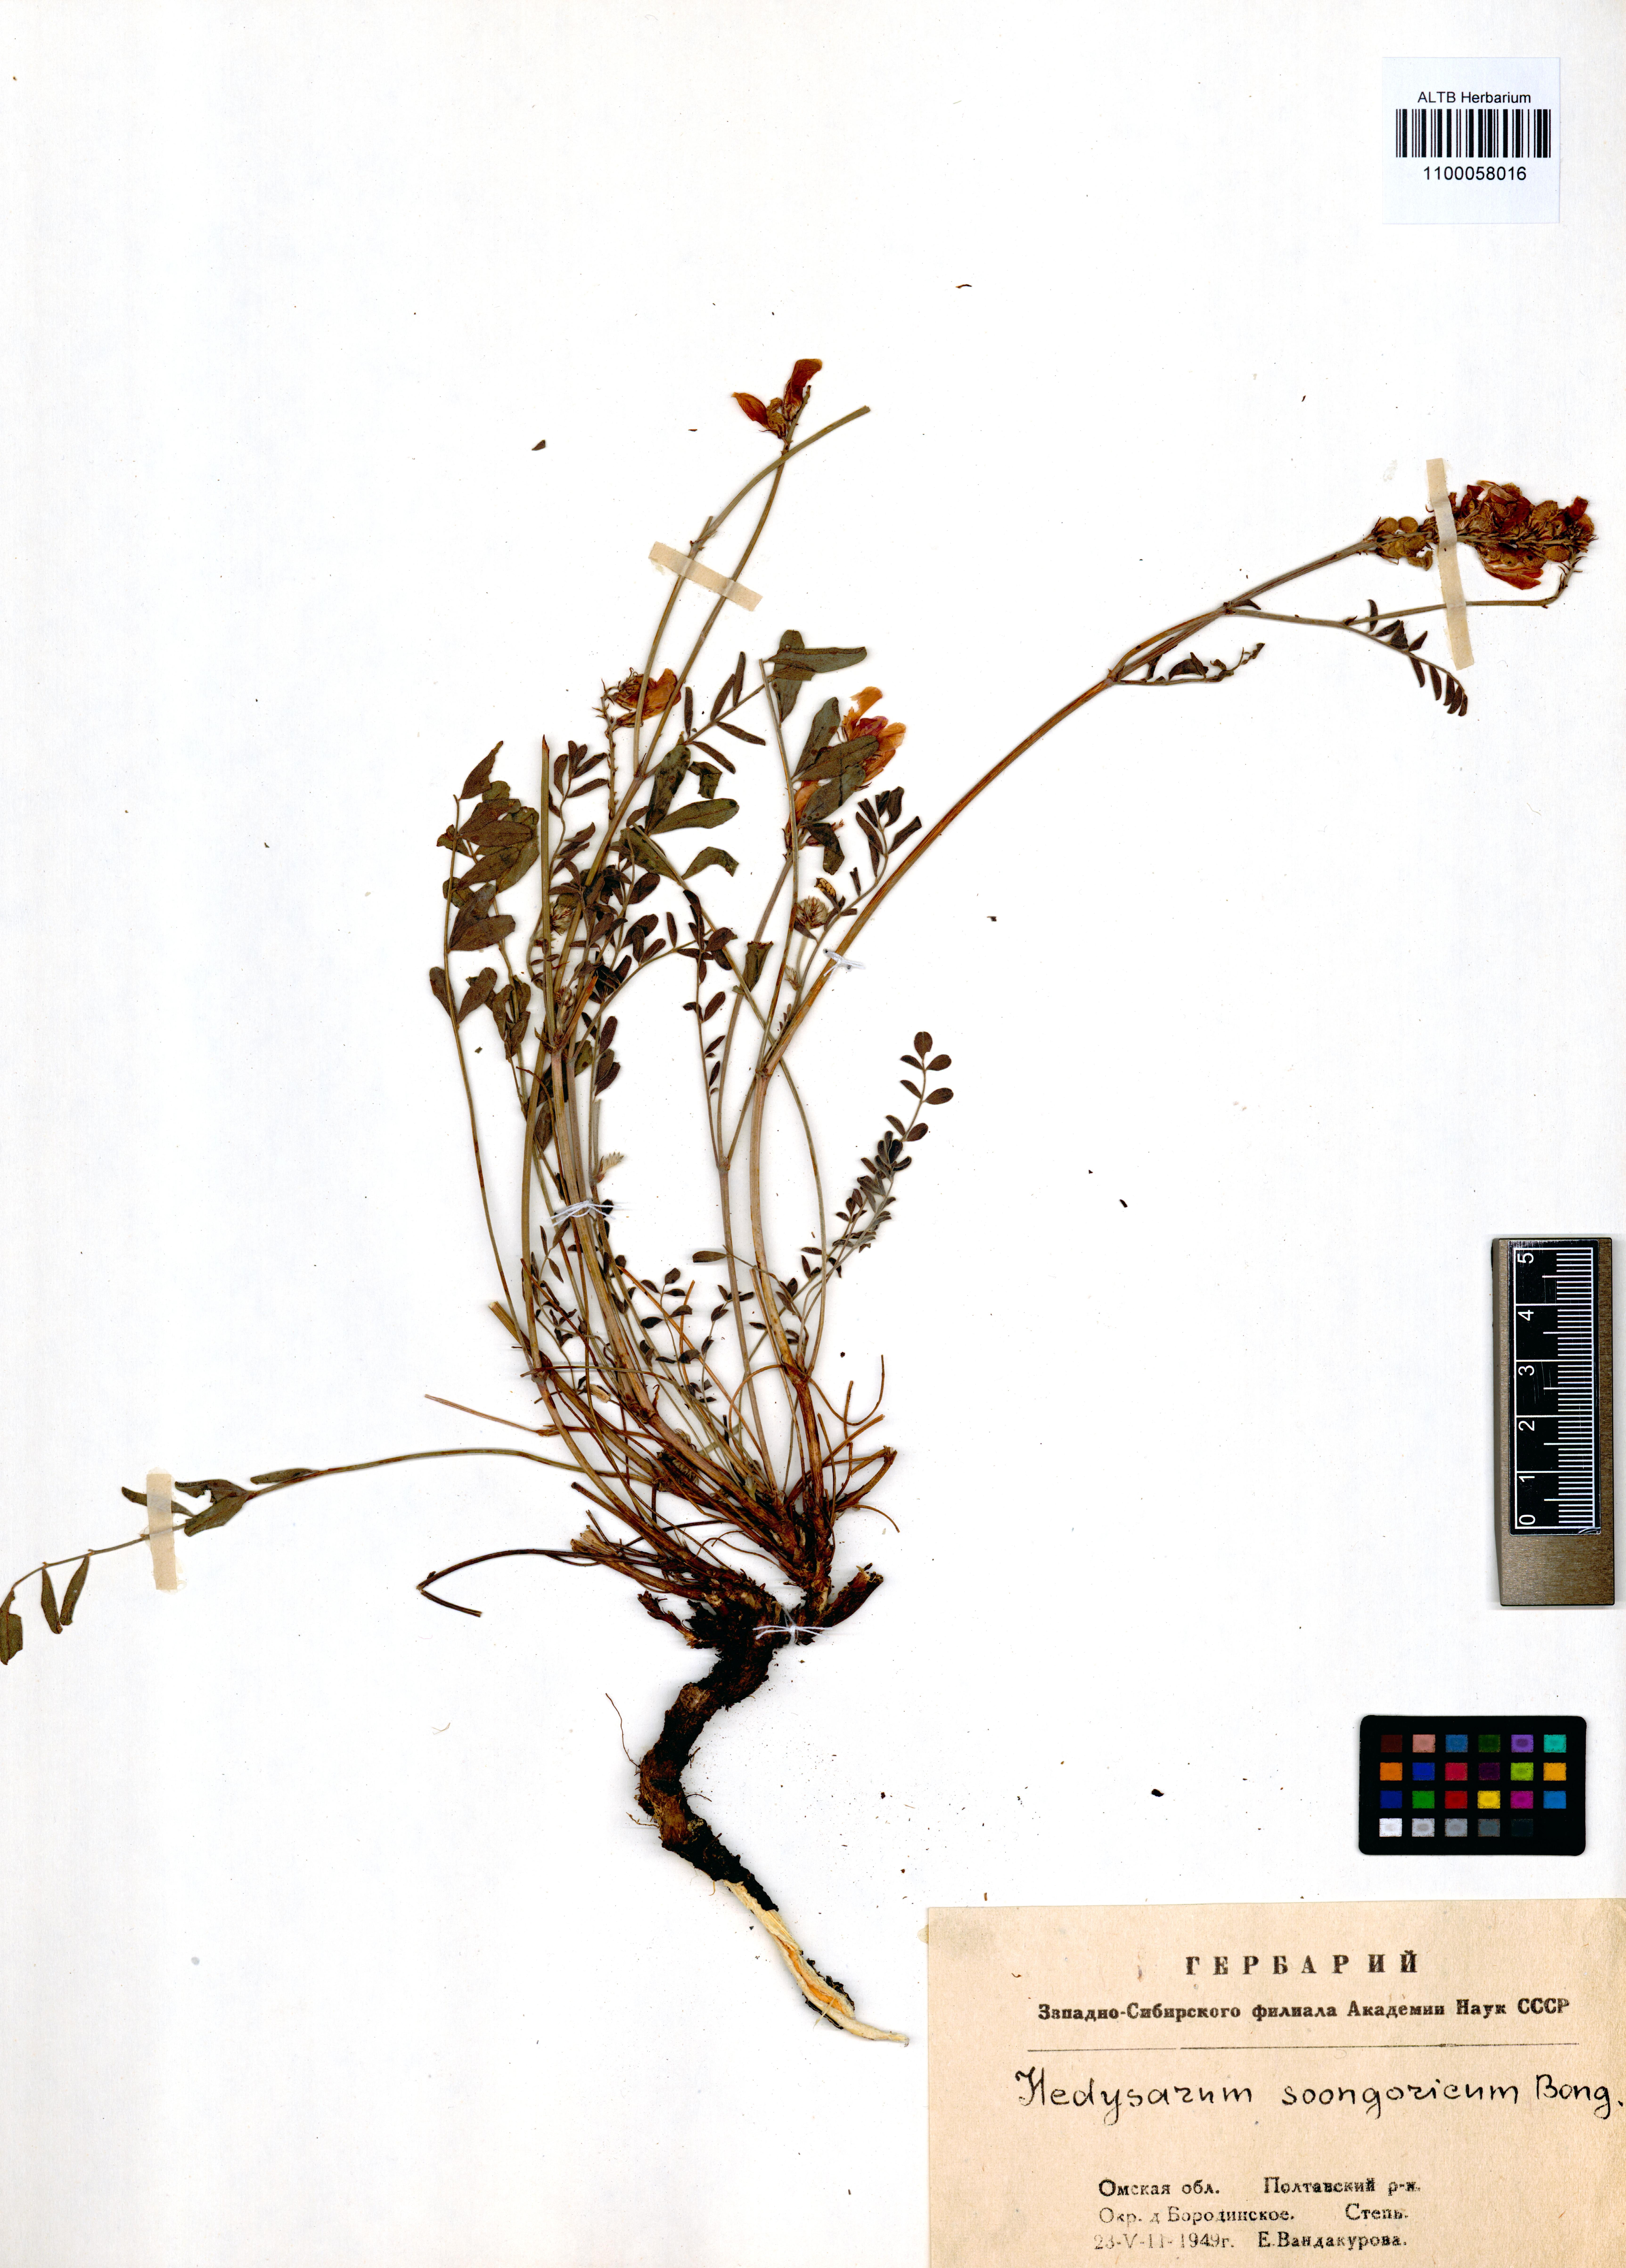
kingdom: Plantae
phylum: Tracheophyta
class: Magnoliopsida
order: Fabales
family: Fabaceae
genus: Hedysarum
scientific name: Hedysarum songaricum
